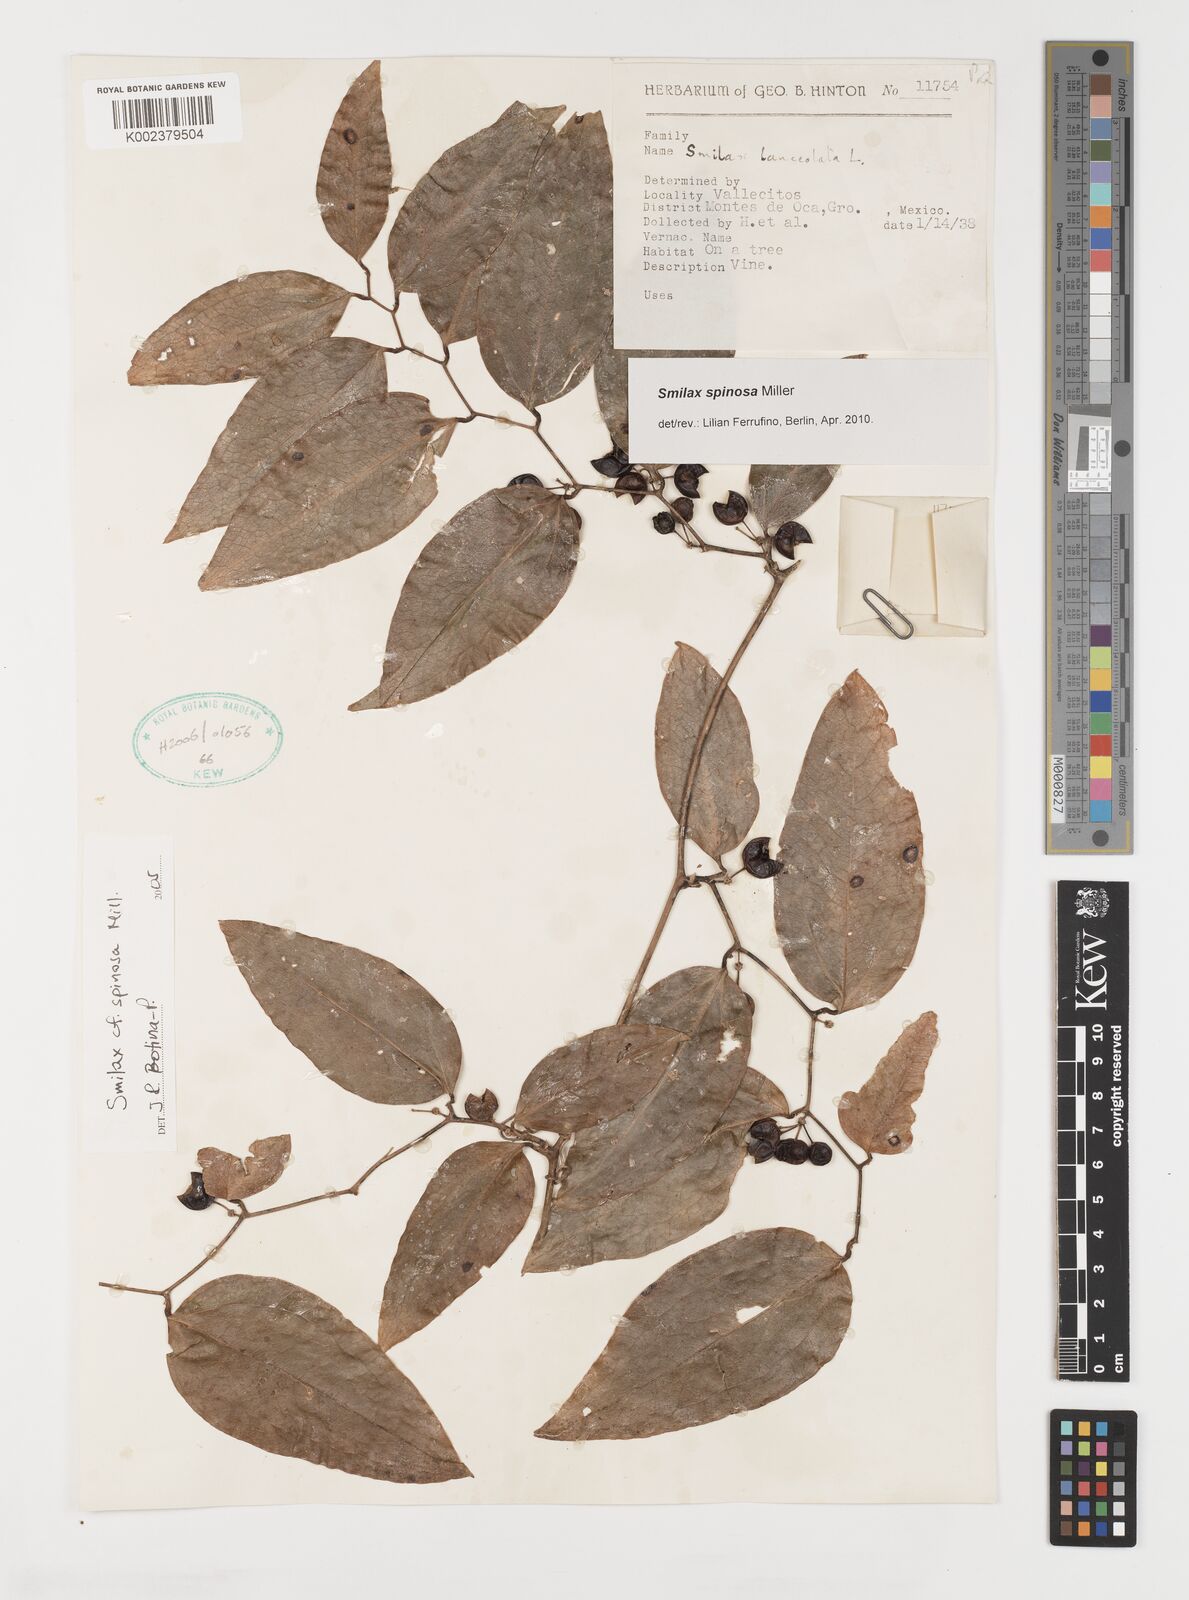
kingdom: Plantae
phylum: Tracheophyta
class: Liliopsida
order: Liliales
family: Smilacaceae
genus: Smilax
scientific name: Smilax spinosa
